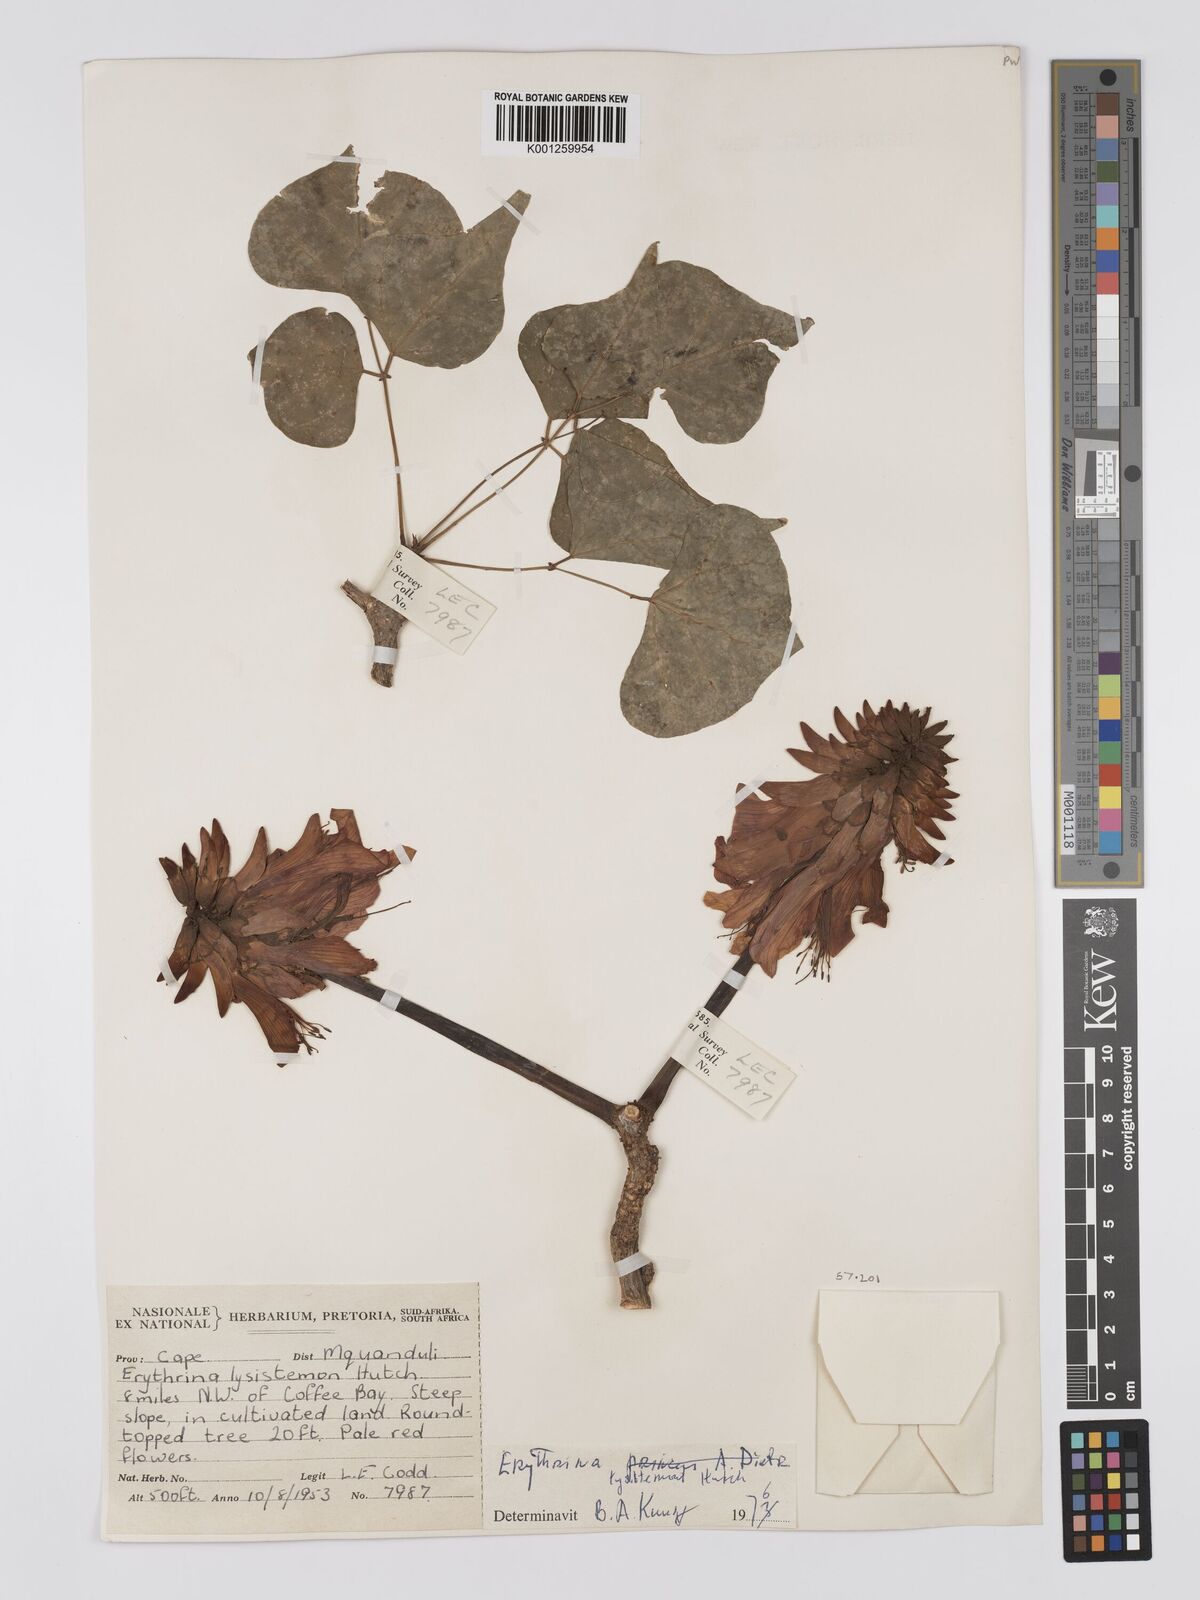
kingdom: Plantae
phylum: Tracheophyta
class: Magnoliopsida
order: Fabales
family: Fabaceae
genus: Erythrina
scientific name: Erythrina lysistemon
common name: Common coral tree
